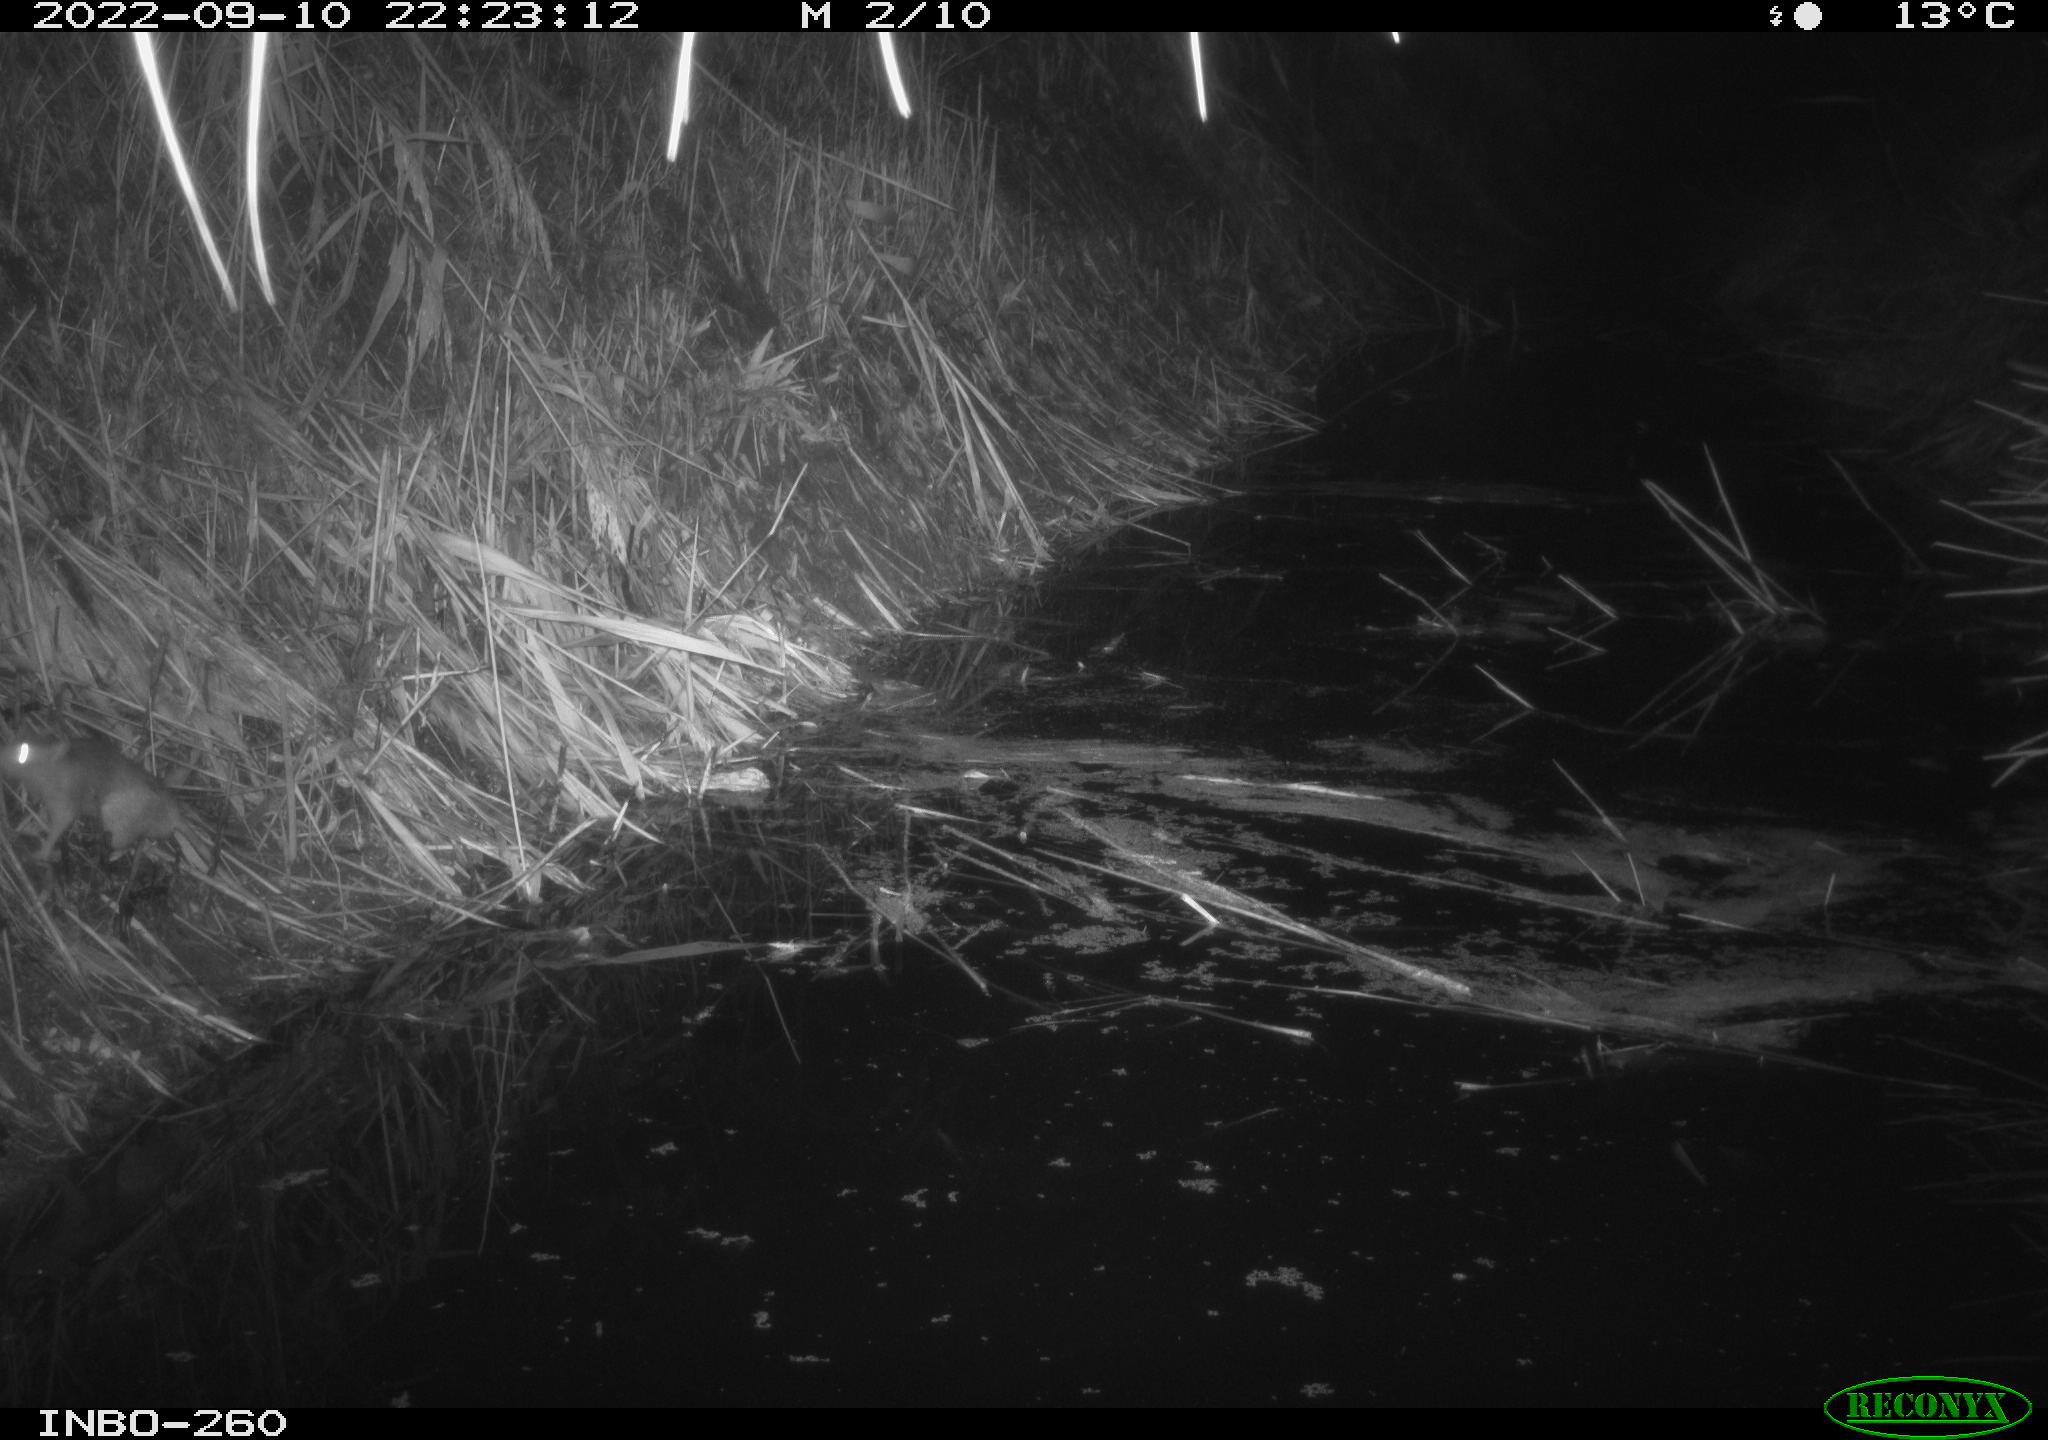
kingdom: Animalia
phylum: Chordata
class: Mammalia
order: Rodentia
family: Muridae
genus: Rattus
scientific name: Rattus norvegicus
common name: Brown rat
